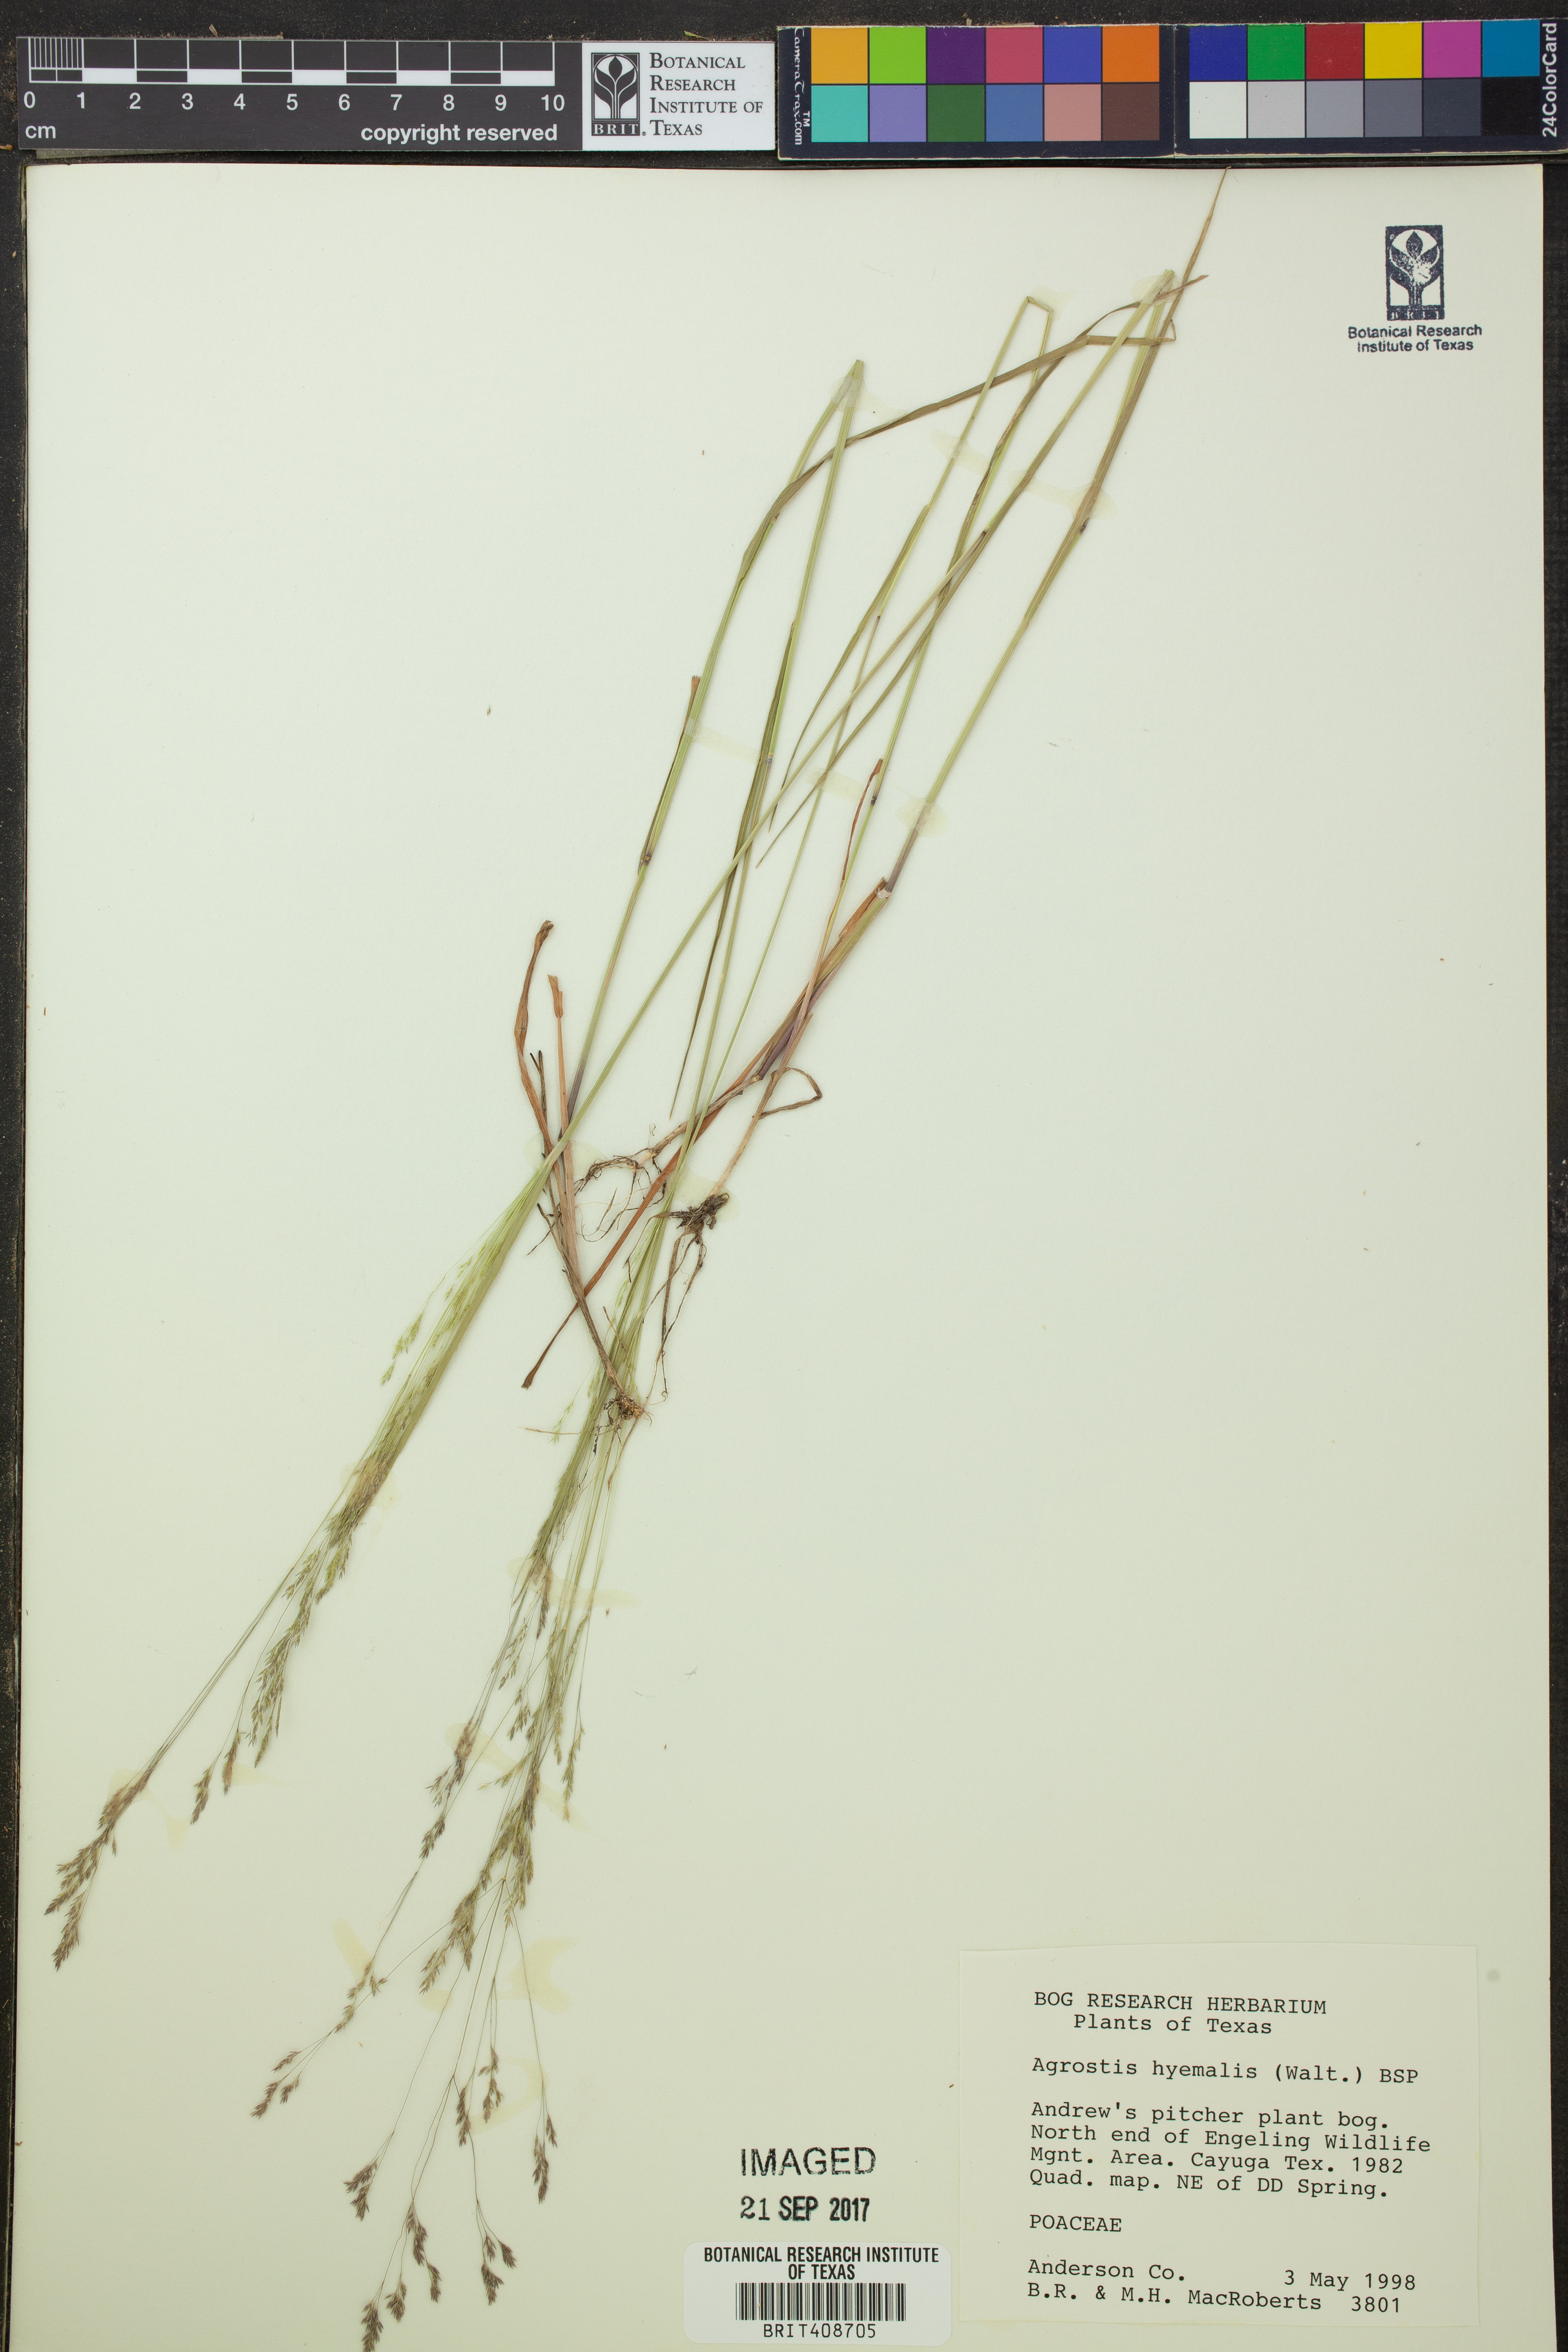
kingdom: Plantae
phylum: Tracheophyta
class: Liliopsida
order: Poales
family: Poaceae
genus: Agrostis
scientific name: Agrostis hyemalis
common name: Small bent
